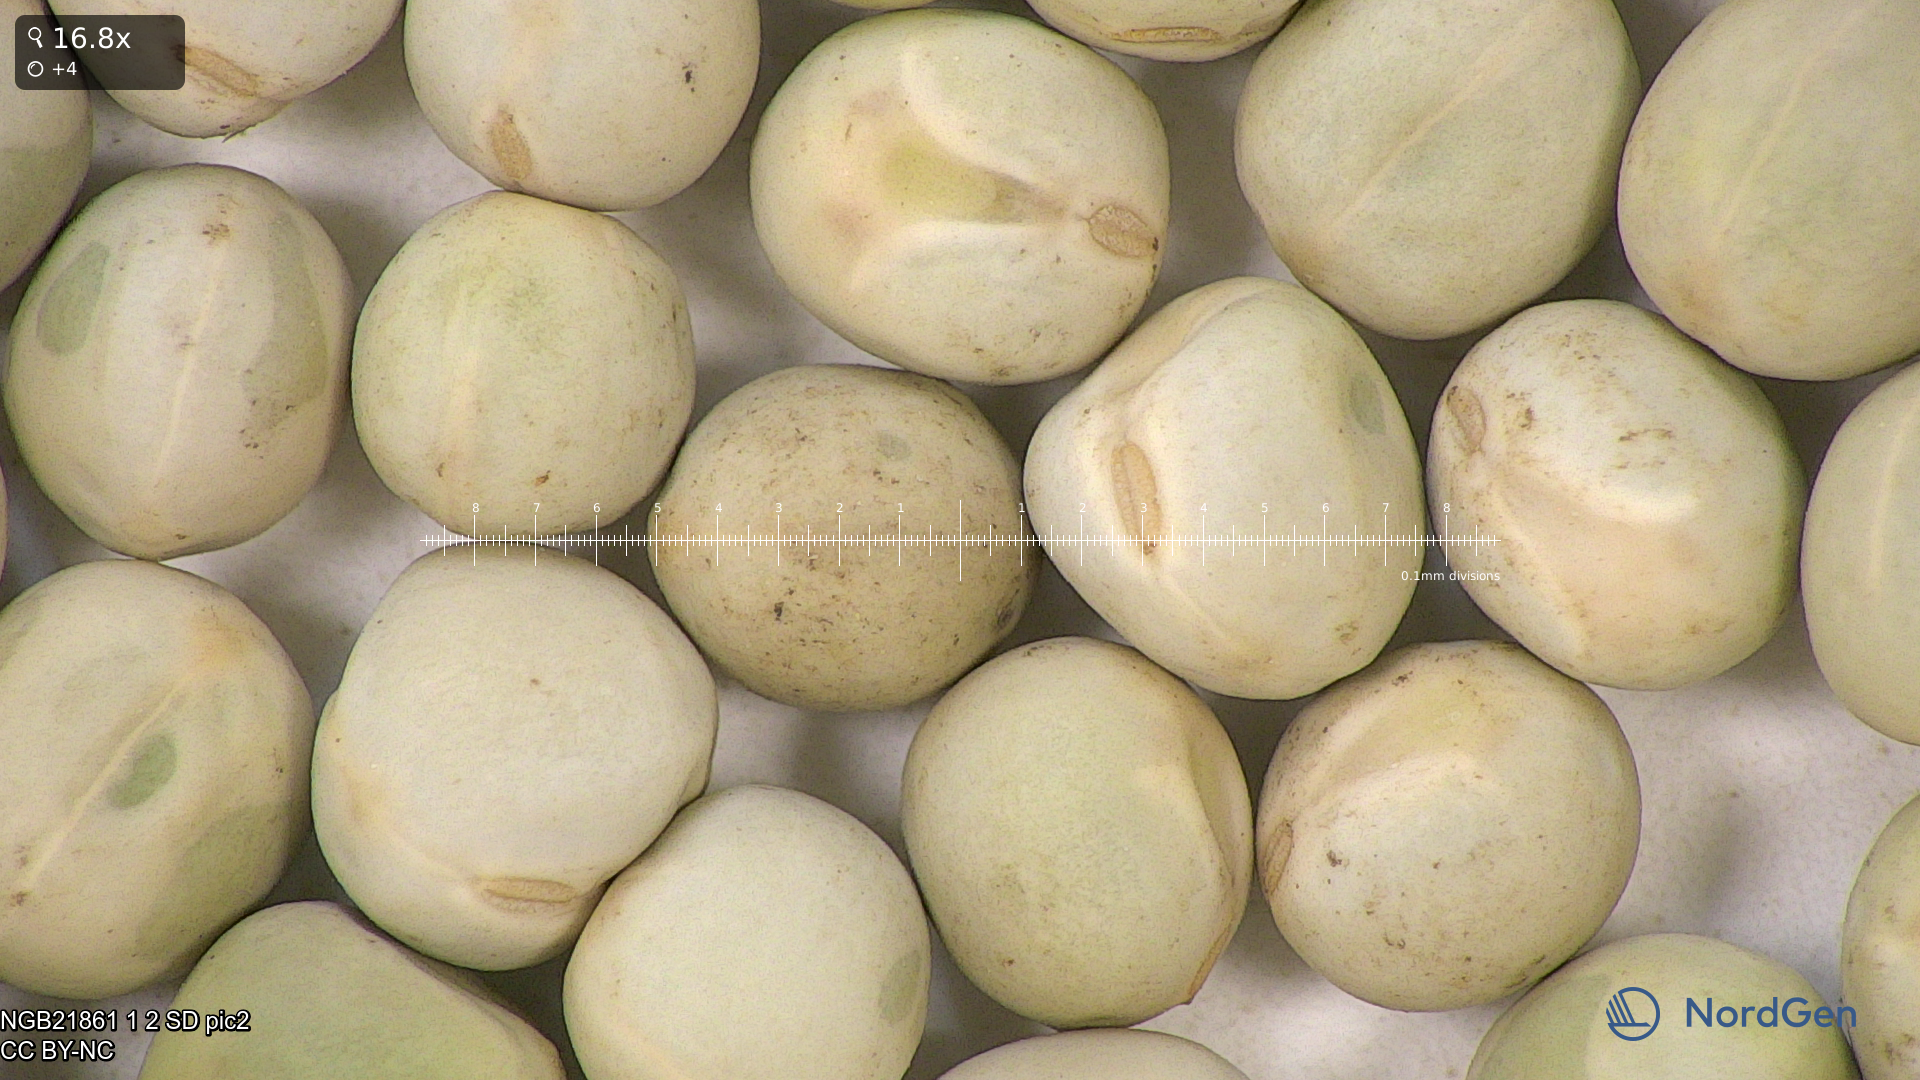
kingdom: Plantae
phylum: Tracheophyta
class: Magnoliopsida
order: Fabales
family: Fabaceae
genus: Lathyrus
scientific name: Lathyrus oleraceus
